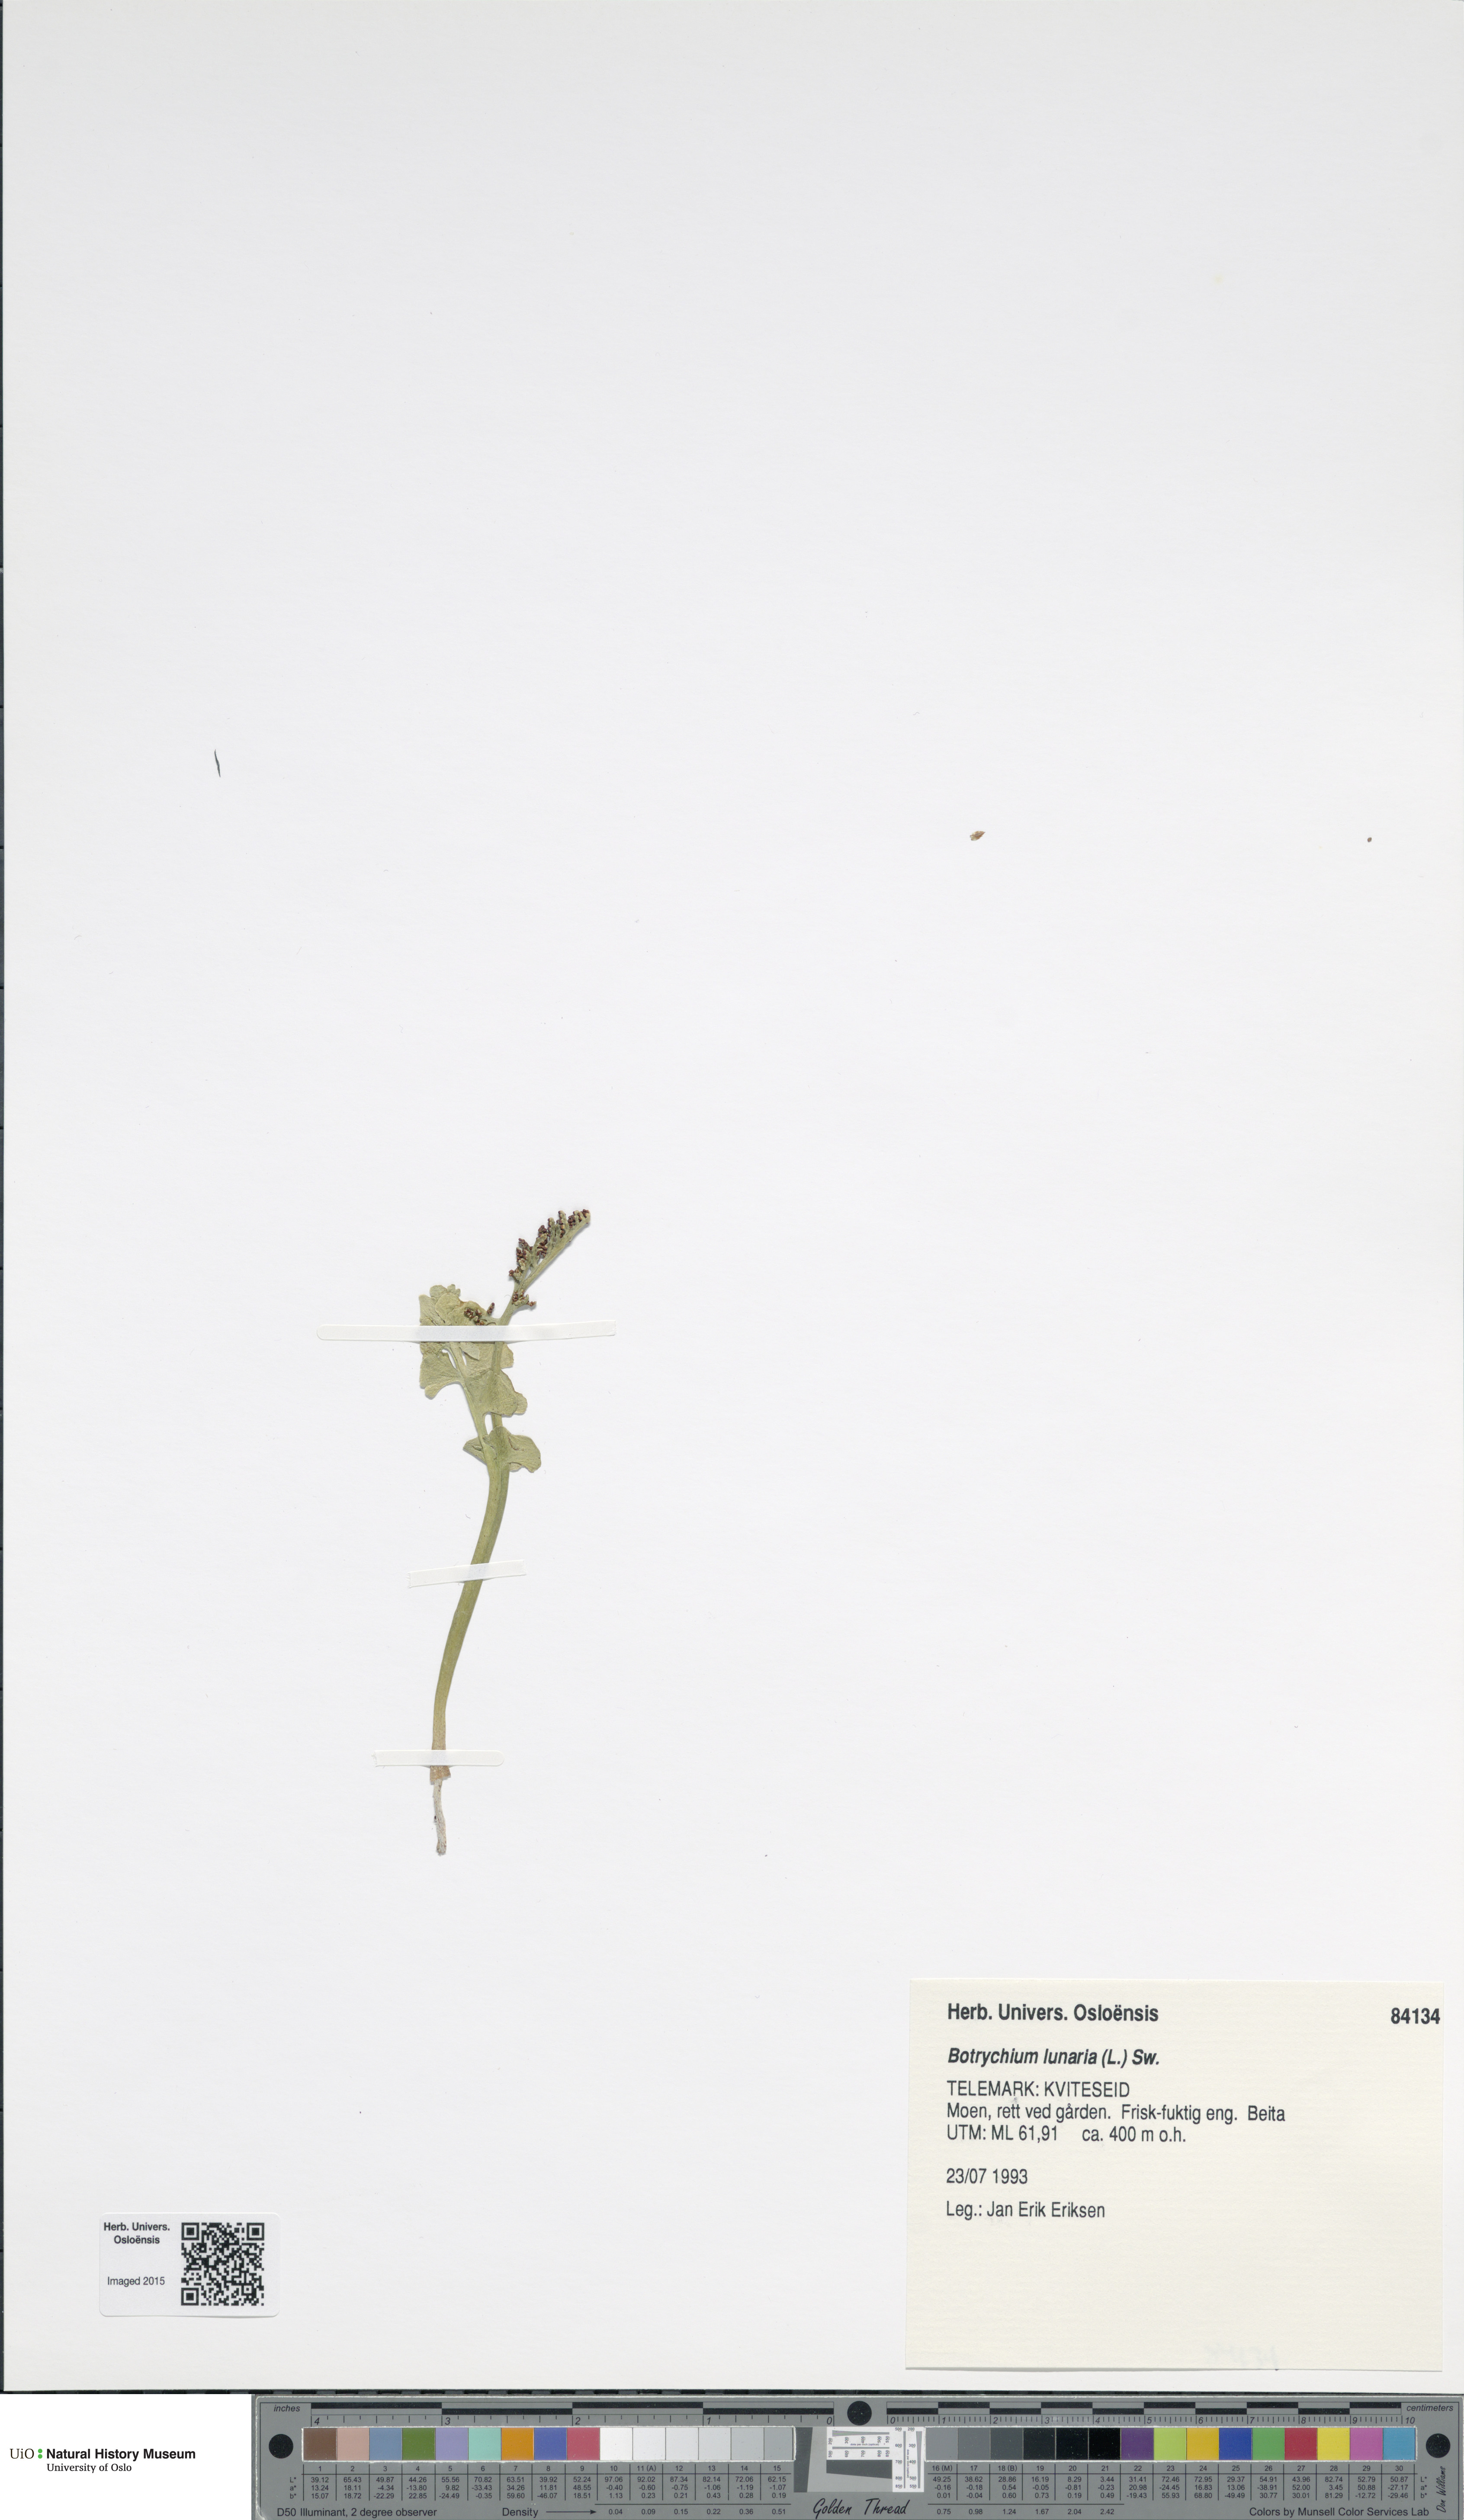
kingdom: Plantae
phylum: Tracheophyta
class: Polypodiopsida
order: Ophioglossales
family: Ophioglossaceae
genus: Botrychium
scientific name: Botrychium lunaria
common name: Moonwort
